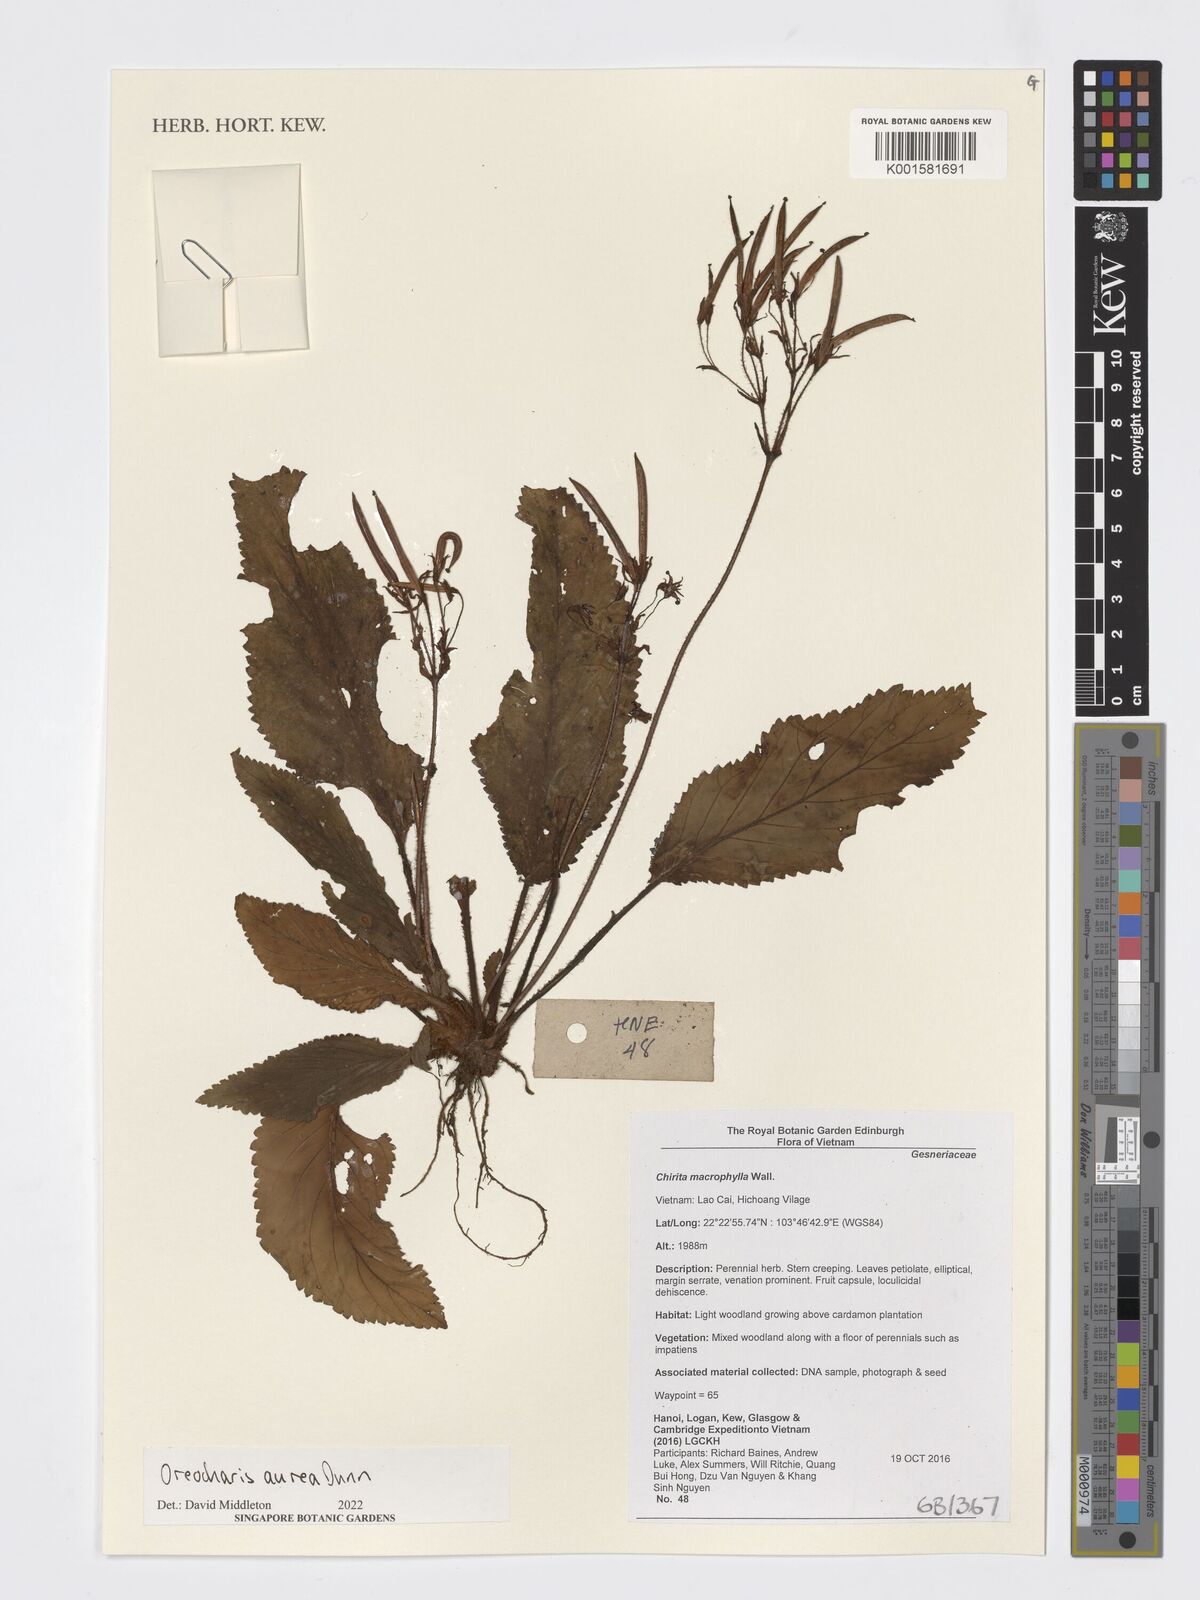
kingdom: Plantae
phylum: Tracheophyta
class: Magnoliopsida
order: Lamiales
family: Gesneriaceae
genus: Oreocharis
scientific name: Oreocharis aurea
